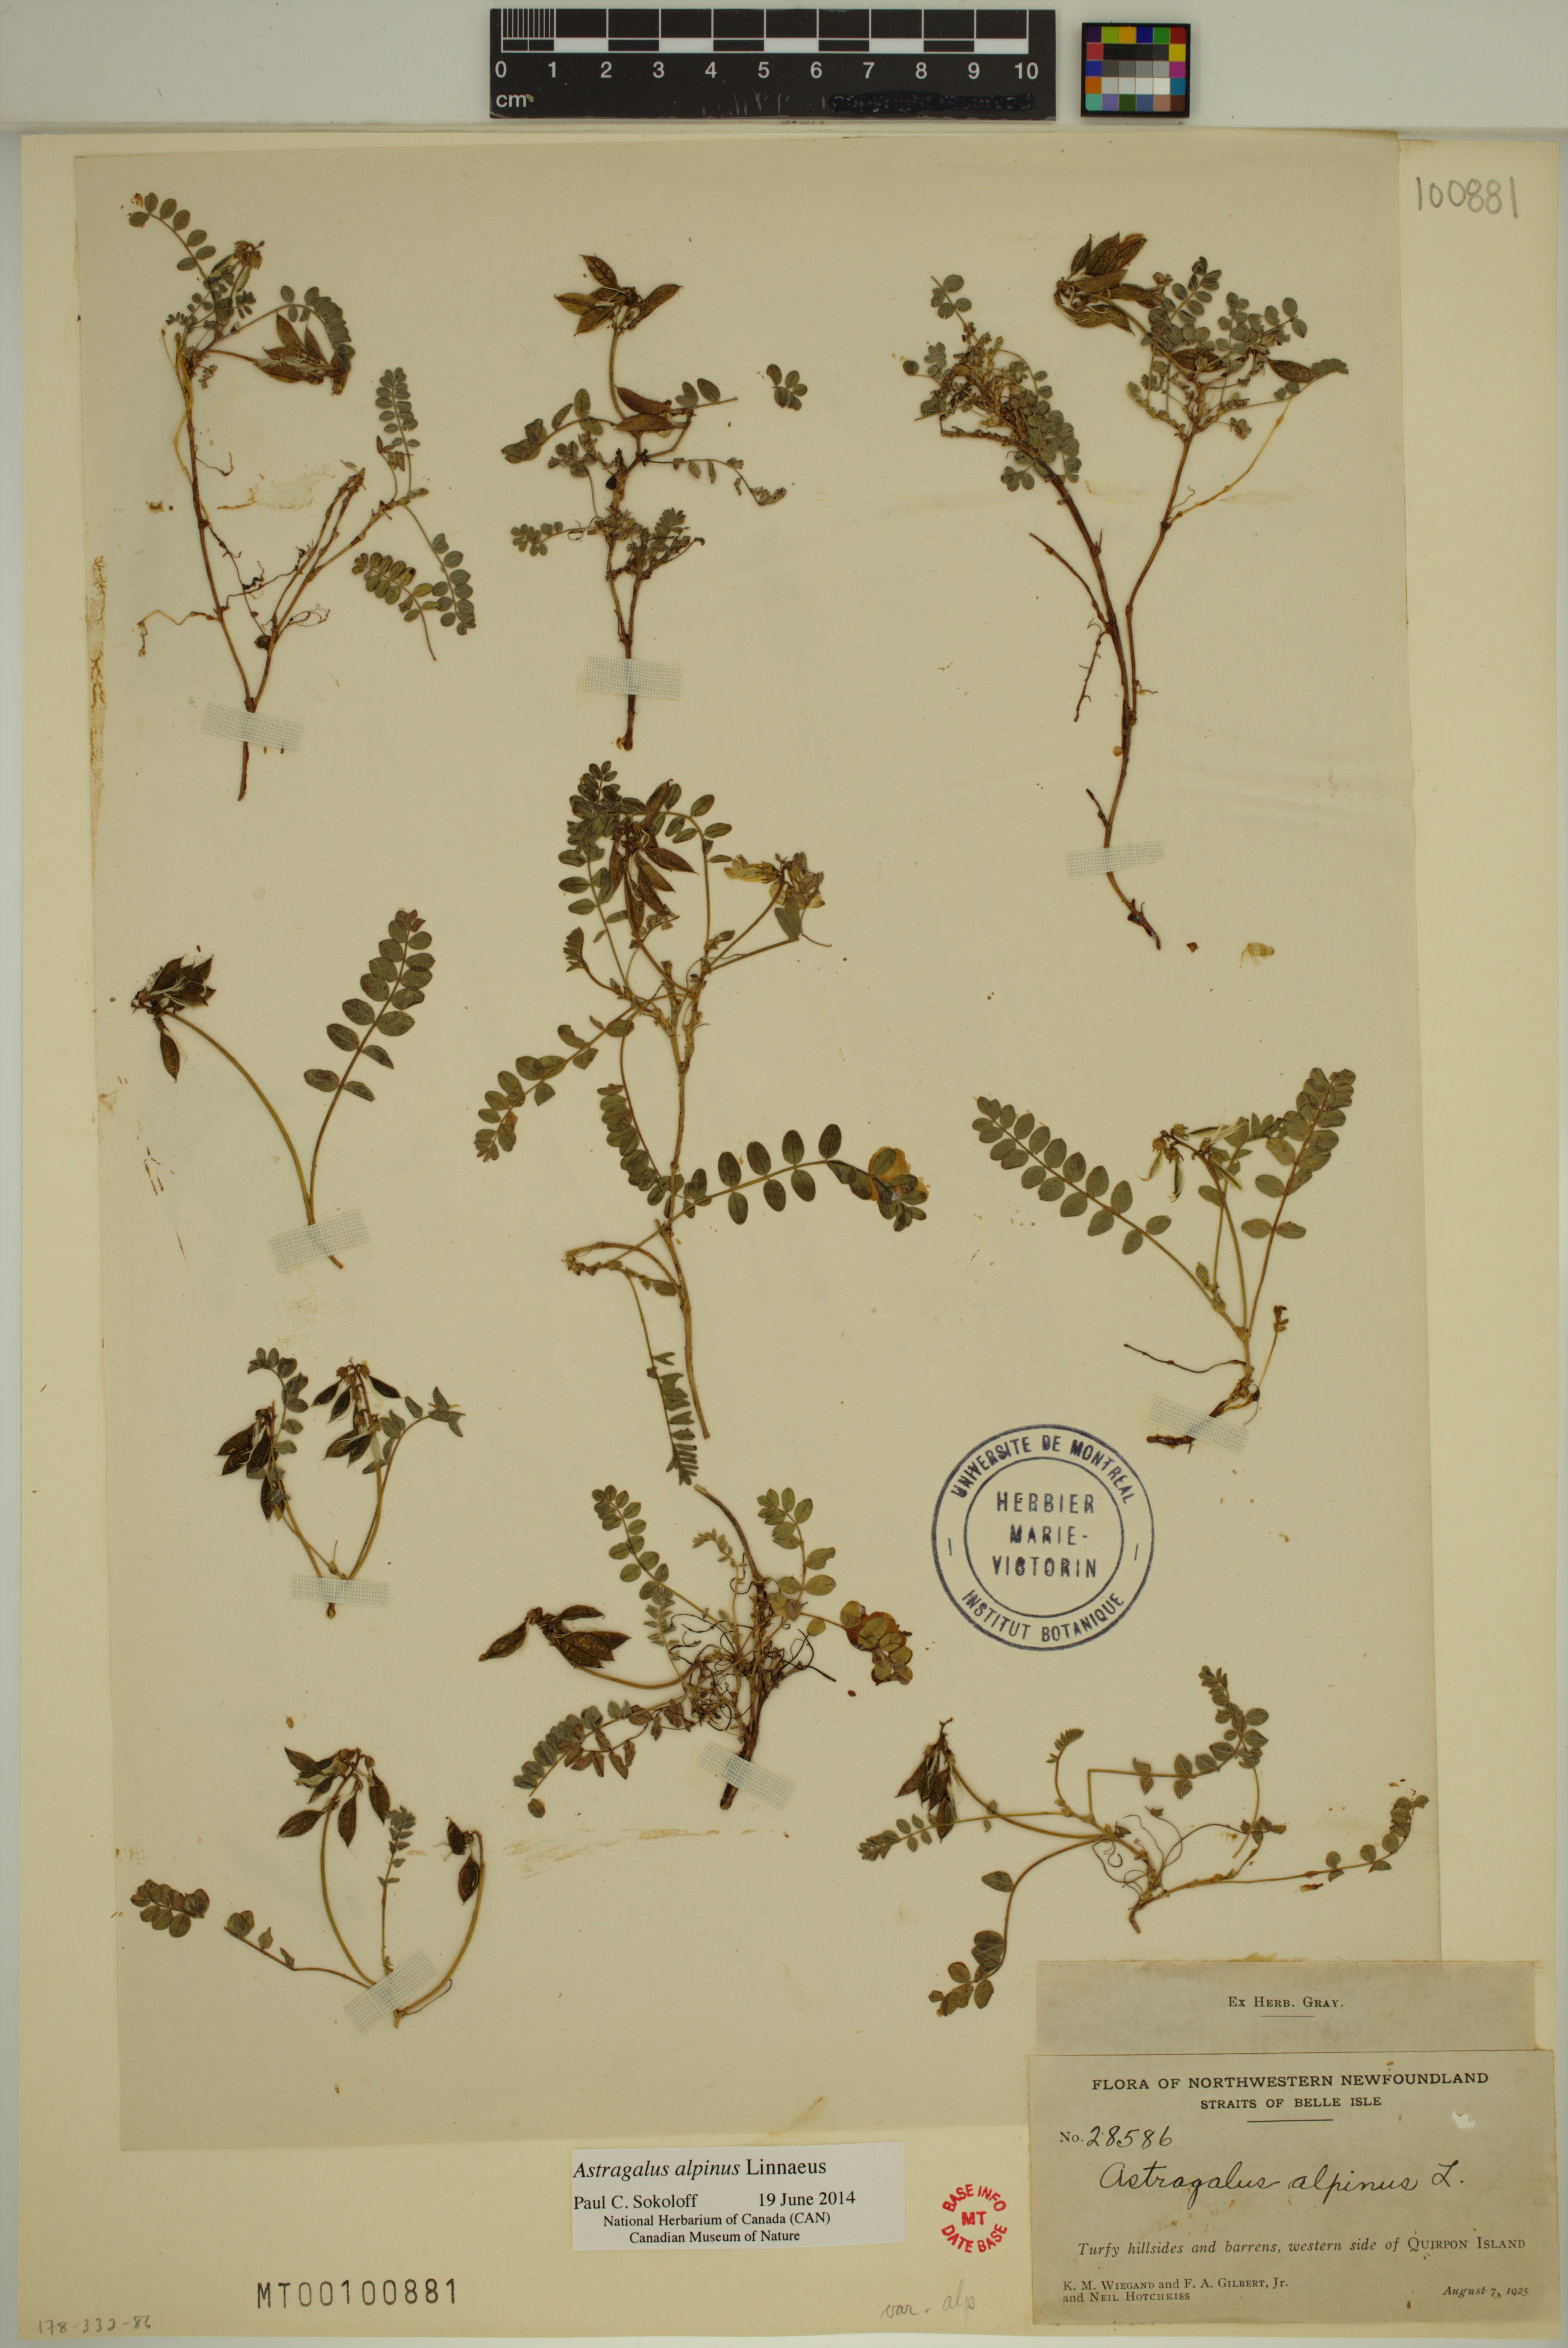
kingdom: Plantae
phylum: Tracheophyta
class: Magnoliopsida
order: Fabales
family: Fabaceae
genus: Astragalus
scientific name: Astragalus alpinus
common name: Alpine milk-vetch
